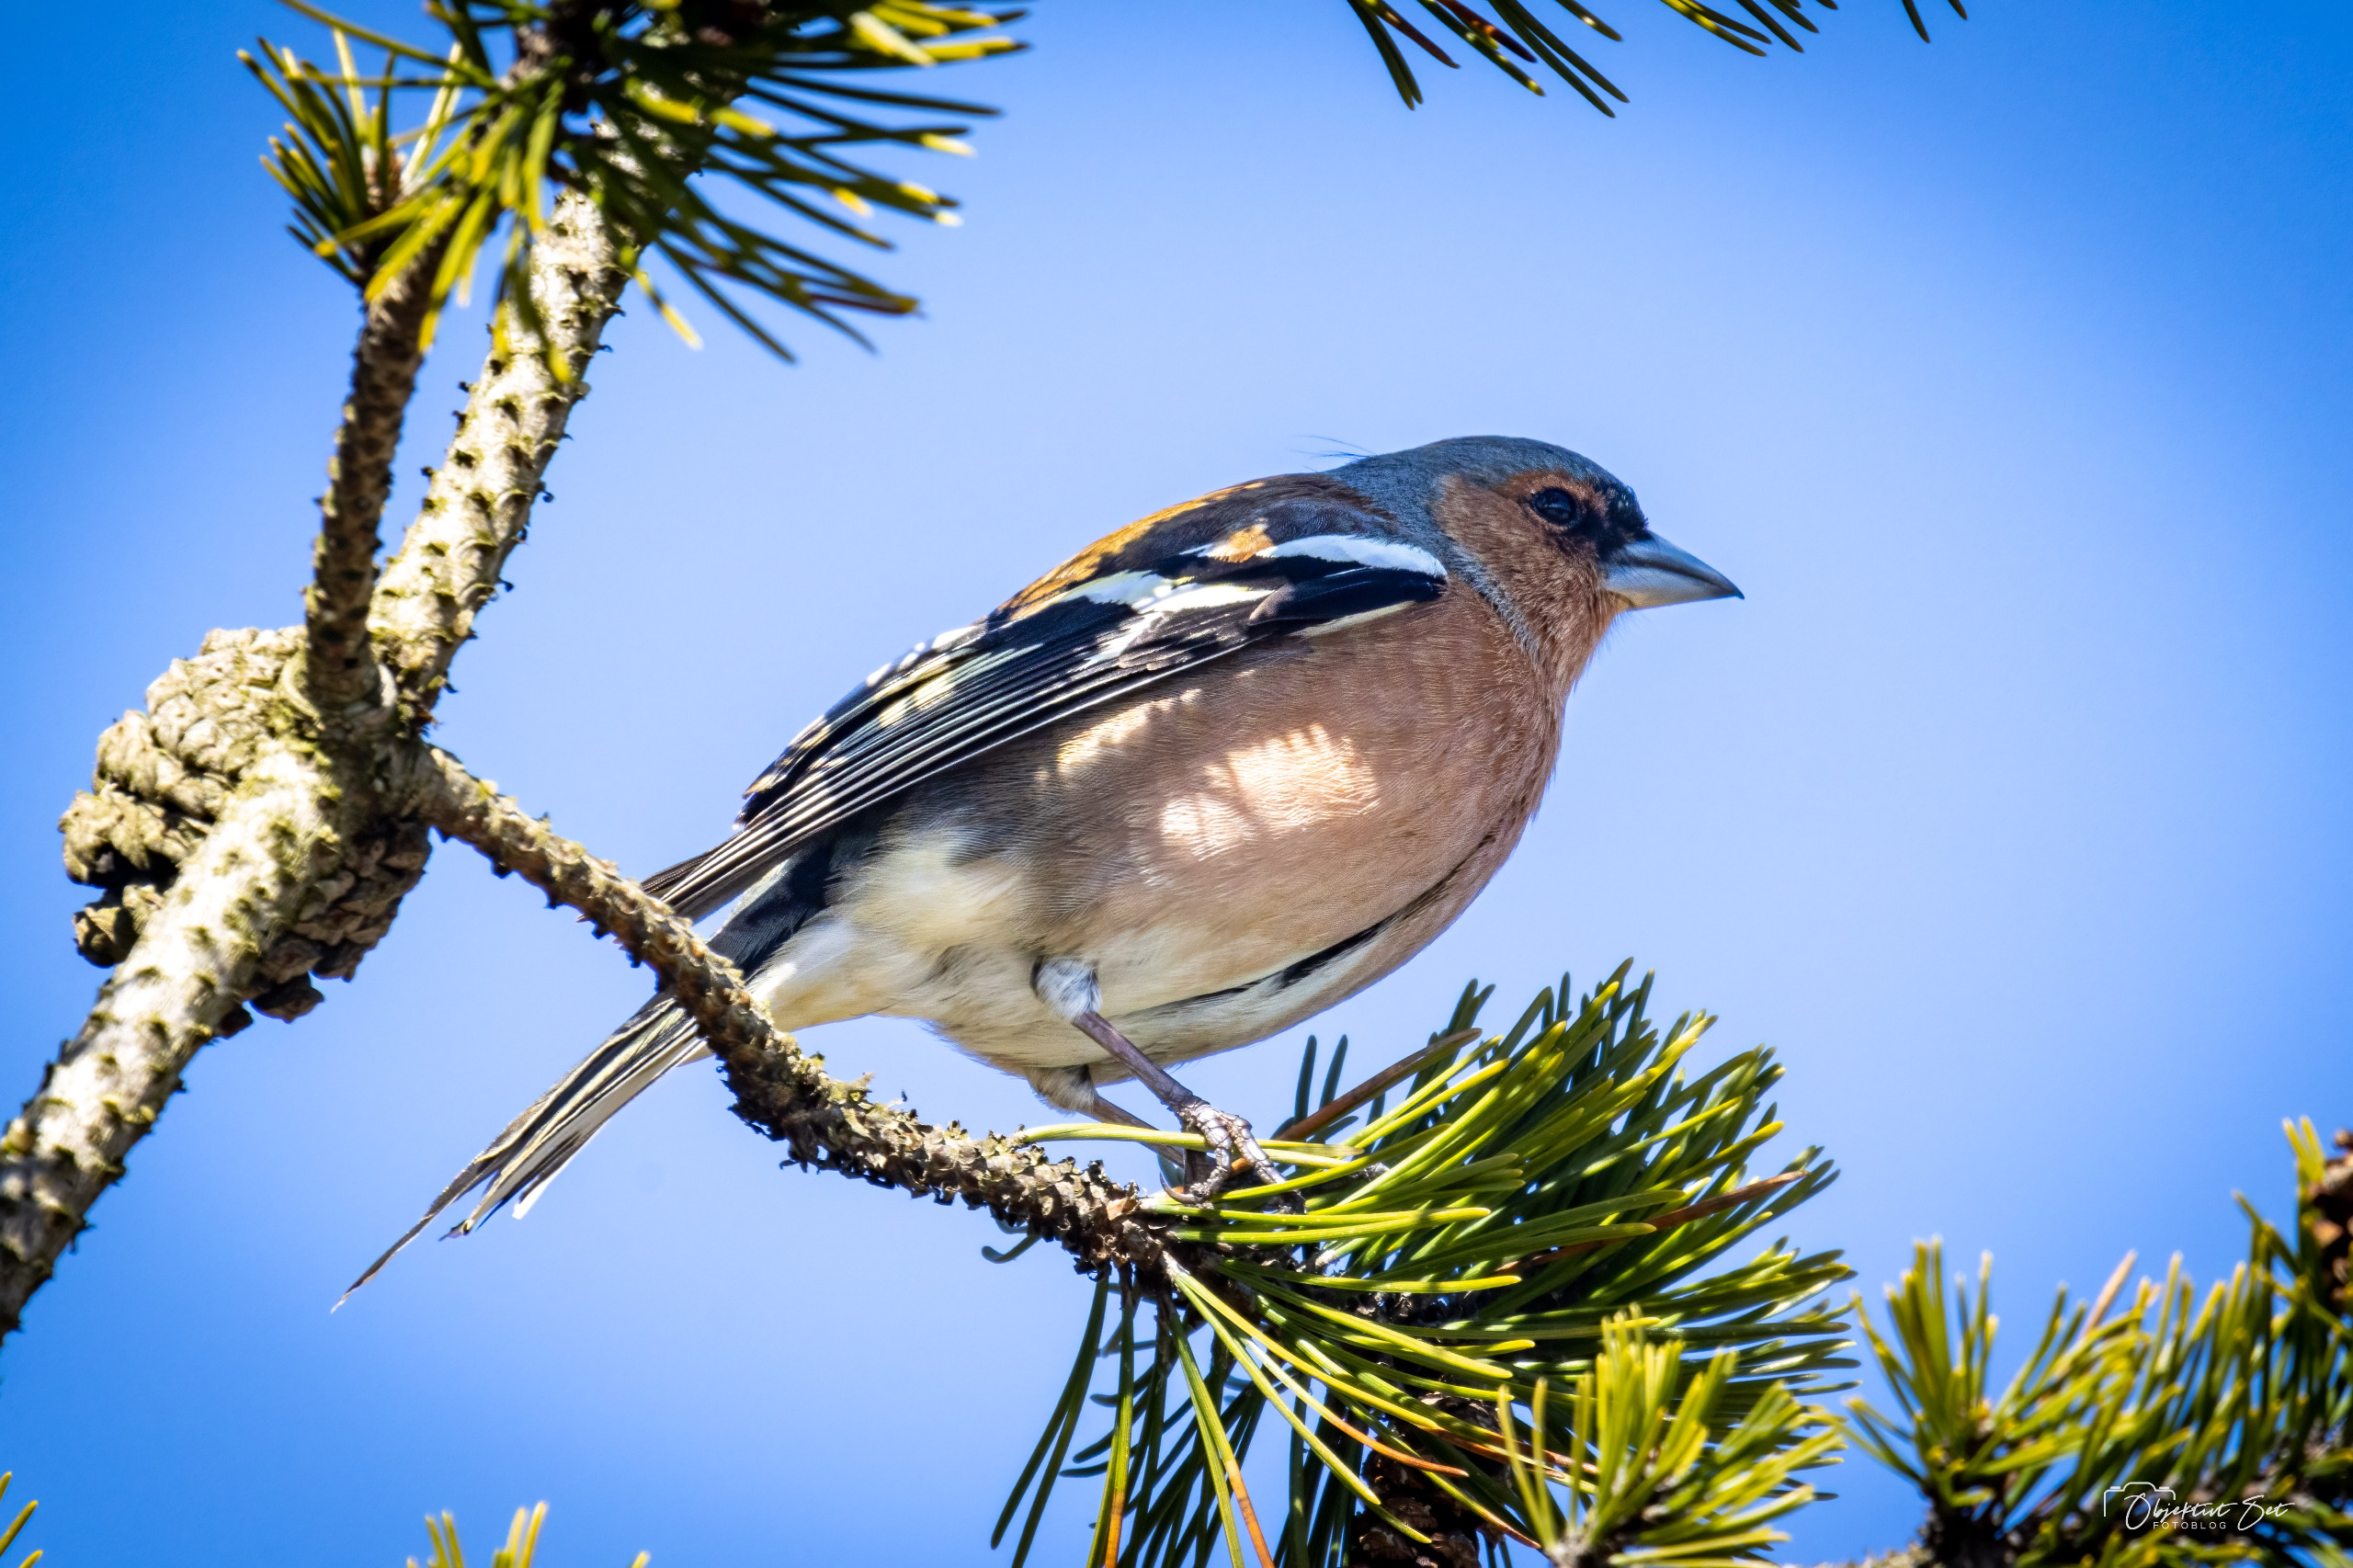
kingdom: Animalia
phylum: Chordata
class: Aves
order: Passeriformes
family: Fringillidae
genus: Fringilla
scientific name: Fringilla coelebs
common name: Bogfinke
